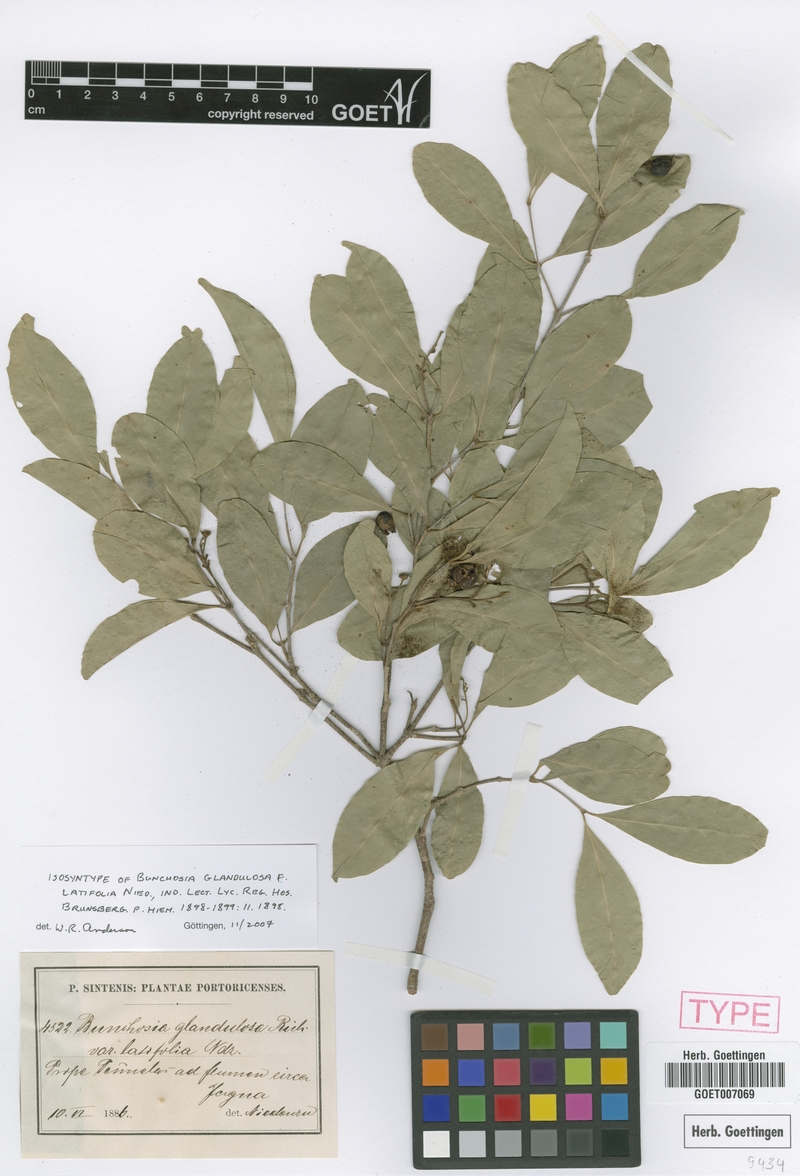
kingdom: Plantae
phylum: Tracheophyta
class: Magnoliopsida
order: Malpighiales
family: Malpighiaceae
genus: Bunchosia
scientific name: Bunchosia glandulosa
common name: Cafe forastero
